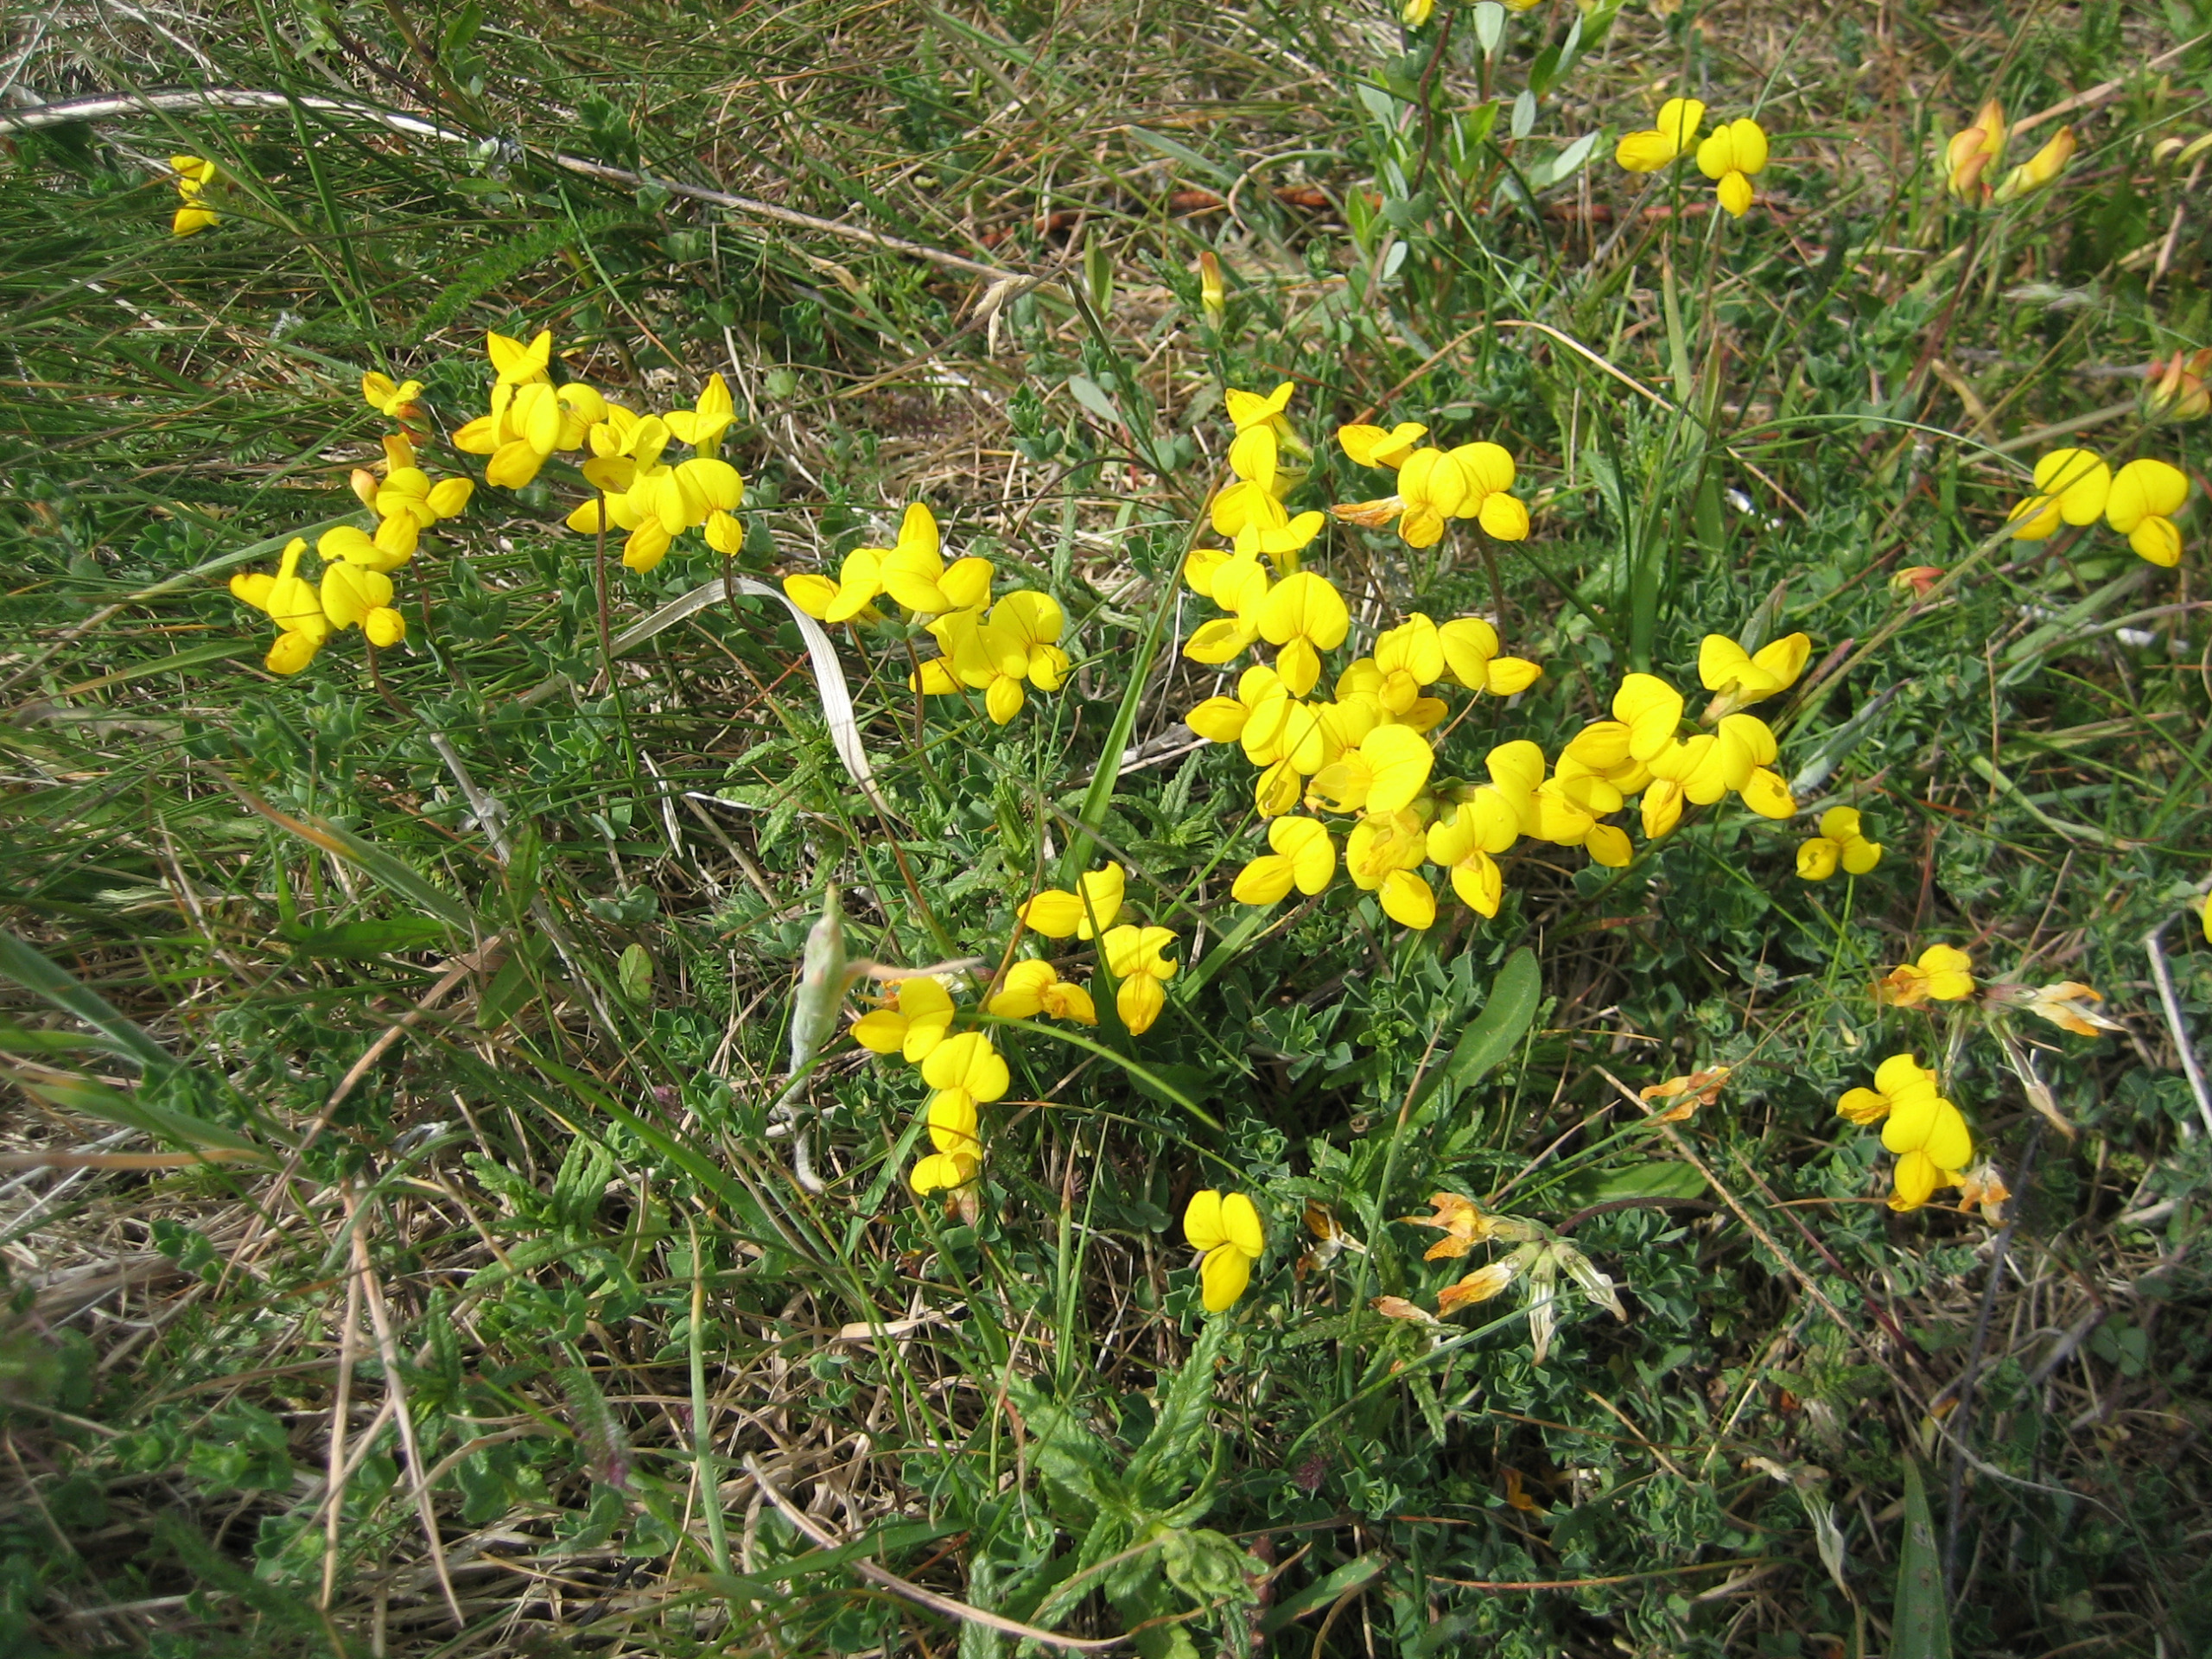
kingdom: Plantae
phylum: Tracheophyta
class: Magnoliopsida
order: Fabales
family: Fabaceae
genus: Lotus
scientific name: Lotus corniculatus
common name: Almindelig kællingetand
